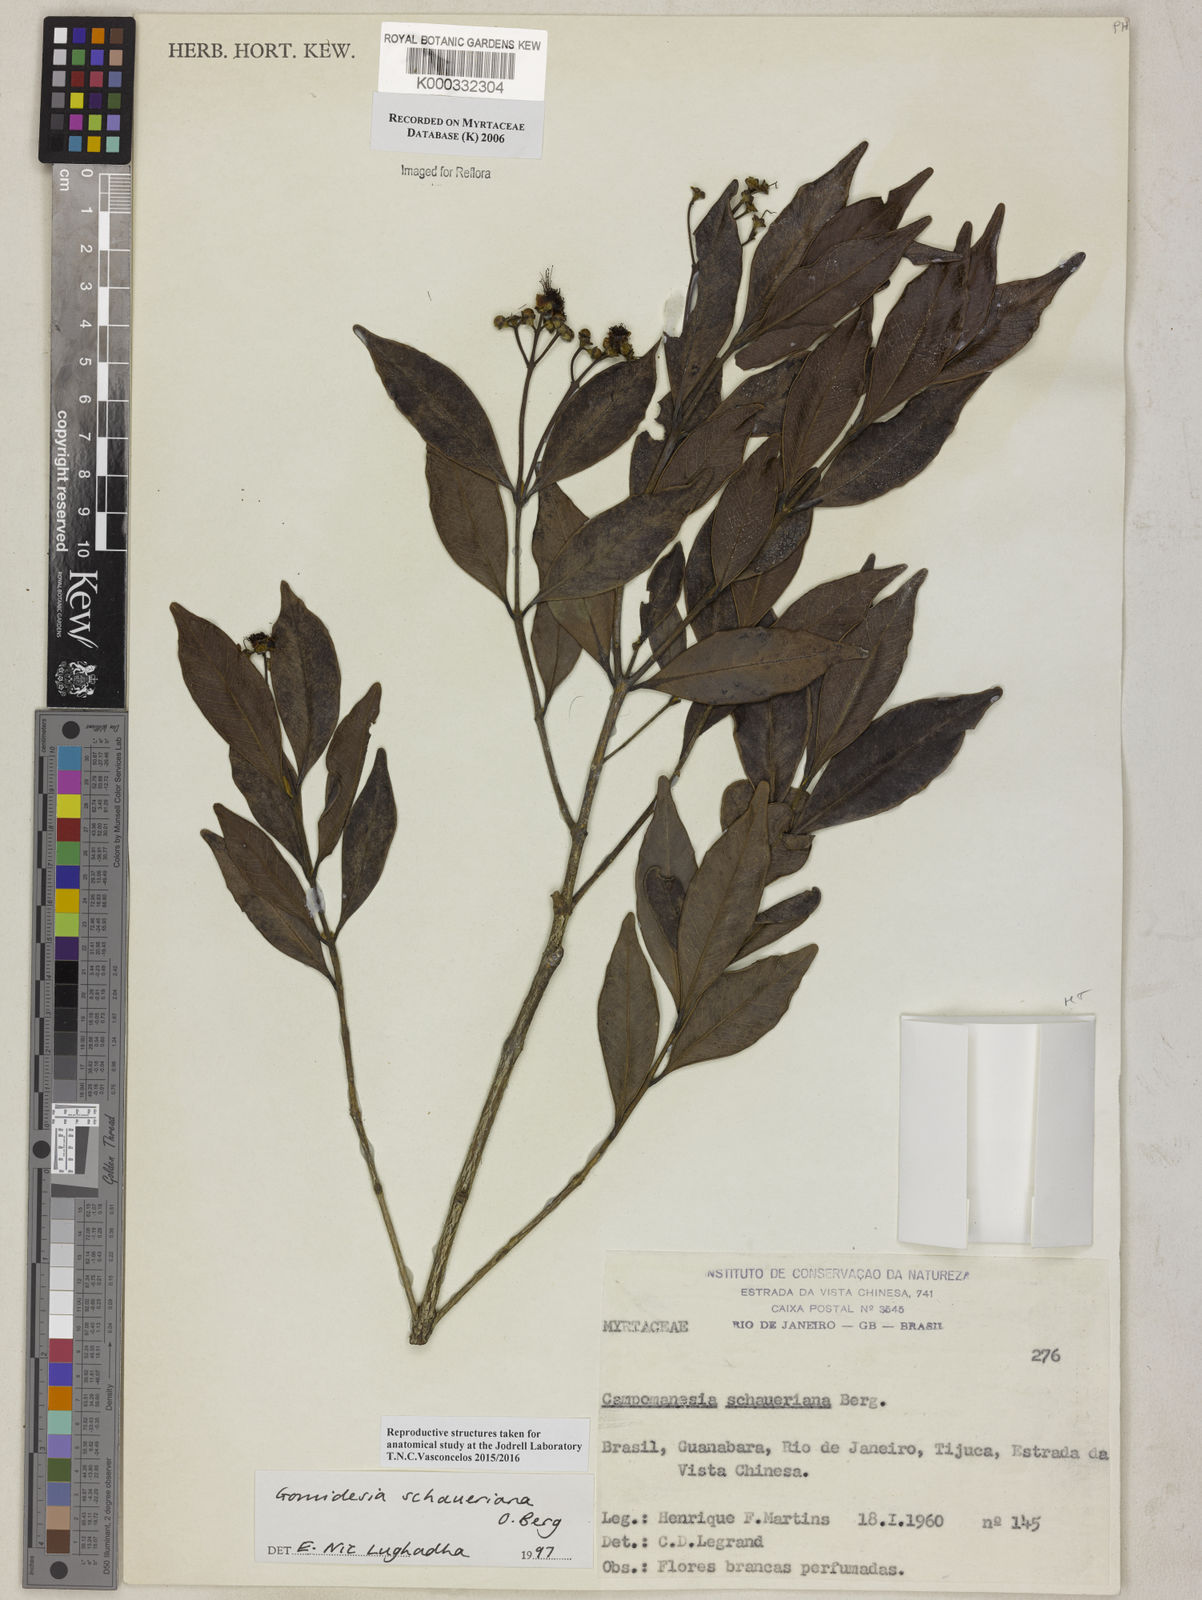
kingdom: Plantae
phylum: Tracheophyta
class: Magnoliopsida
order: Myrtales
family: Myrtaceae
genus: Myrcia
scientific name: Myrcia freyreissiana
